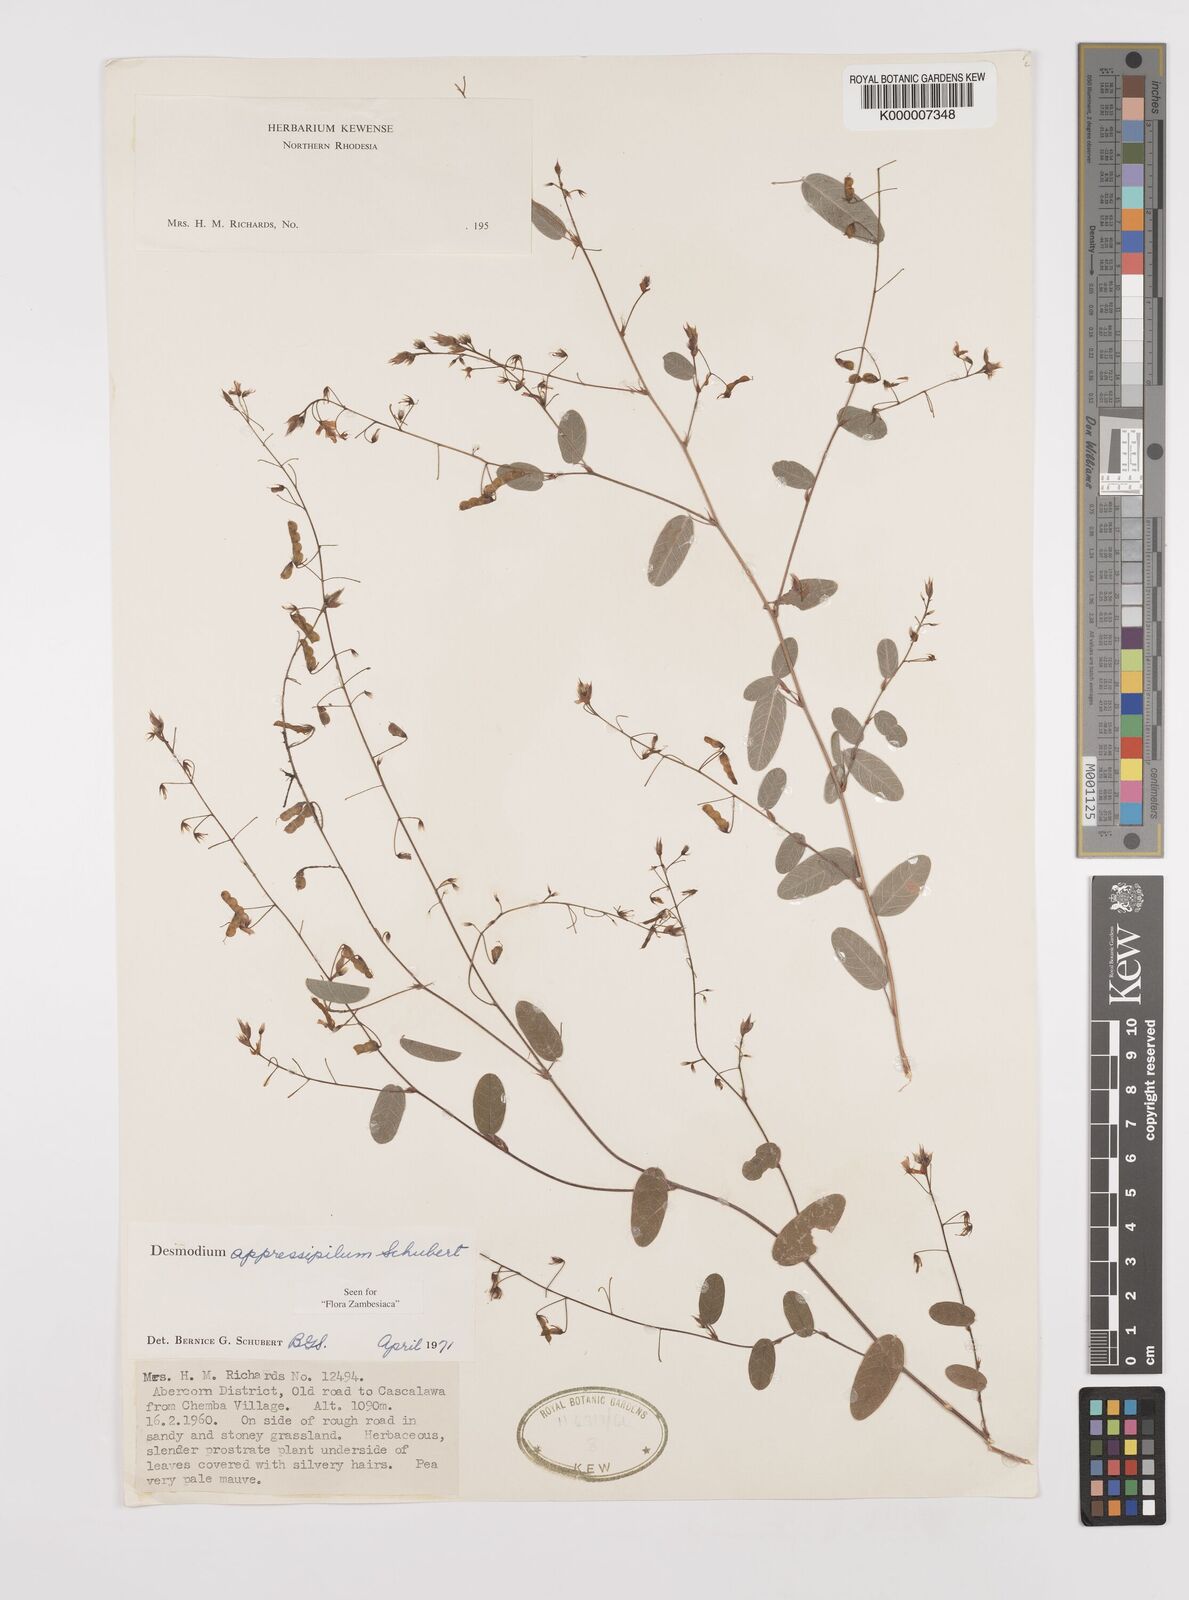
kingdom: Plantae
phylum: Tracheophyta
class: Magnoliopsida
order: Fabales
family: Fabaceae
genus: Grona
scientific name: Grona appressipila
